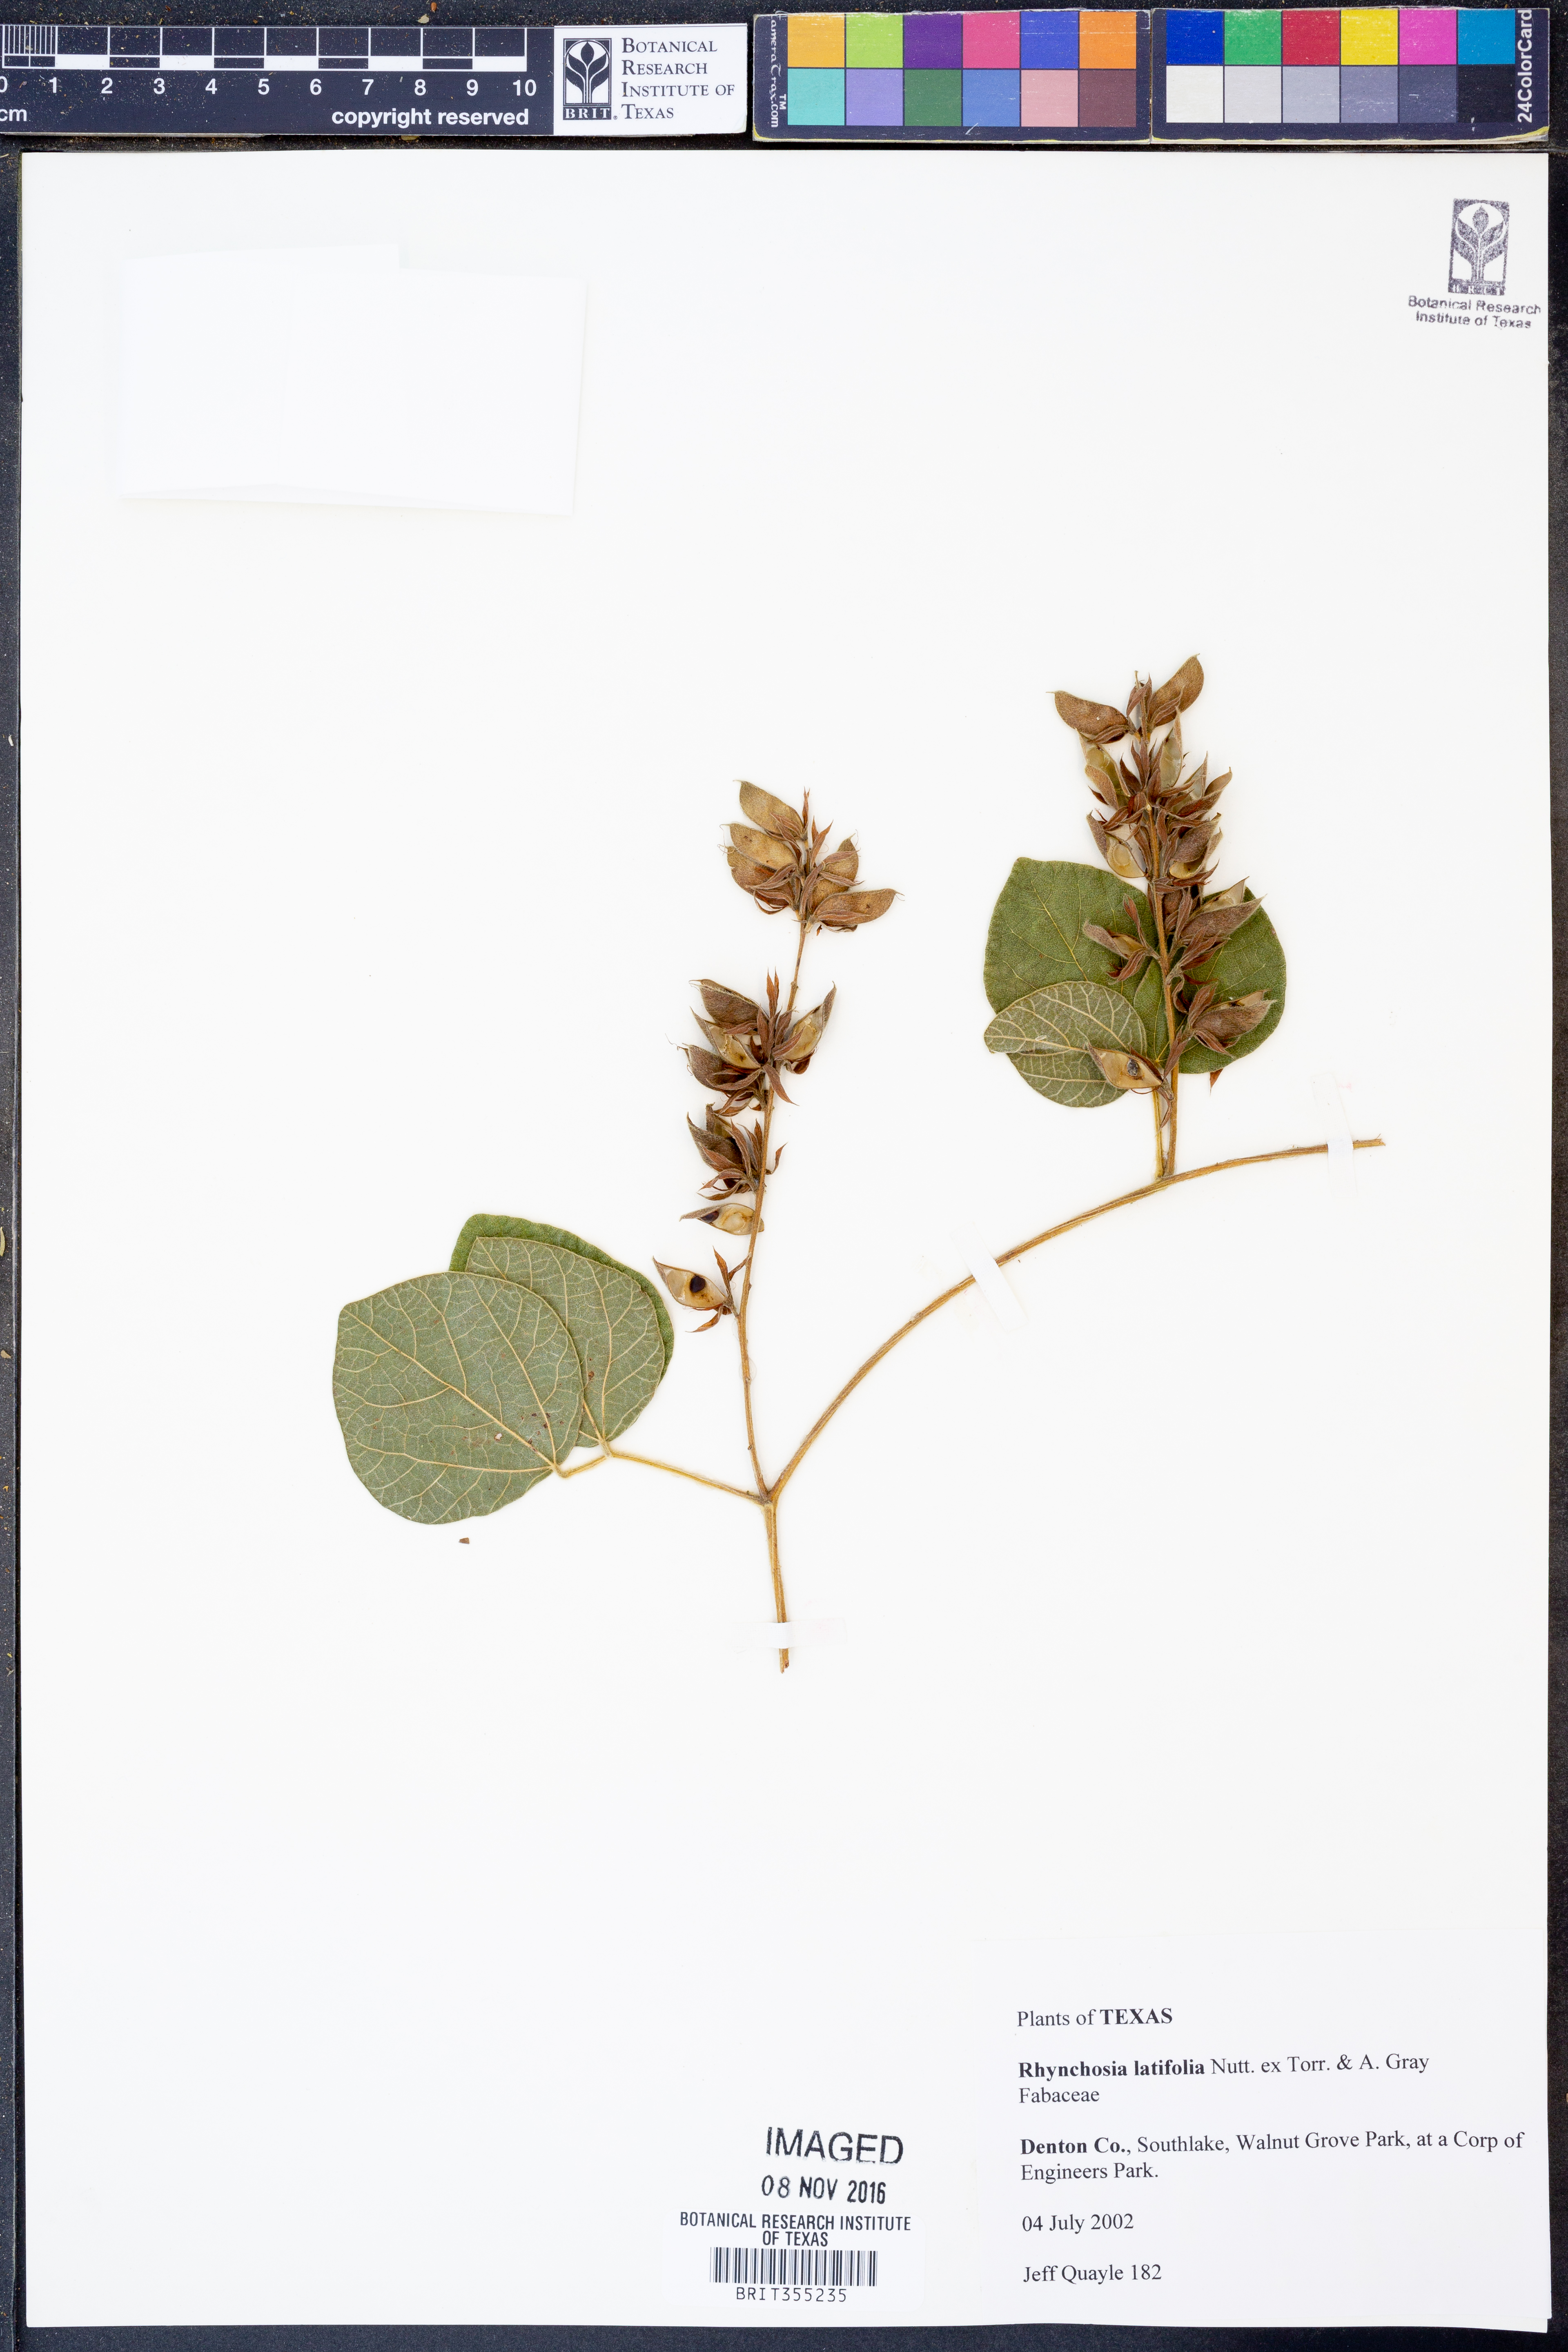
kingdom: Plantae
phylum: Tracheophyta
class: Magnoliopsida
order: Fabales
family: Fabaceae
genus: Rhynchosia
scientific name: Rhynchosia latifolia
